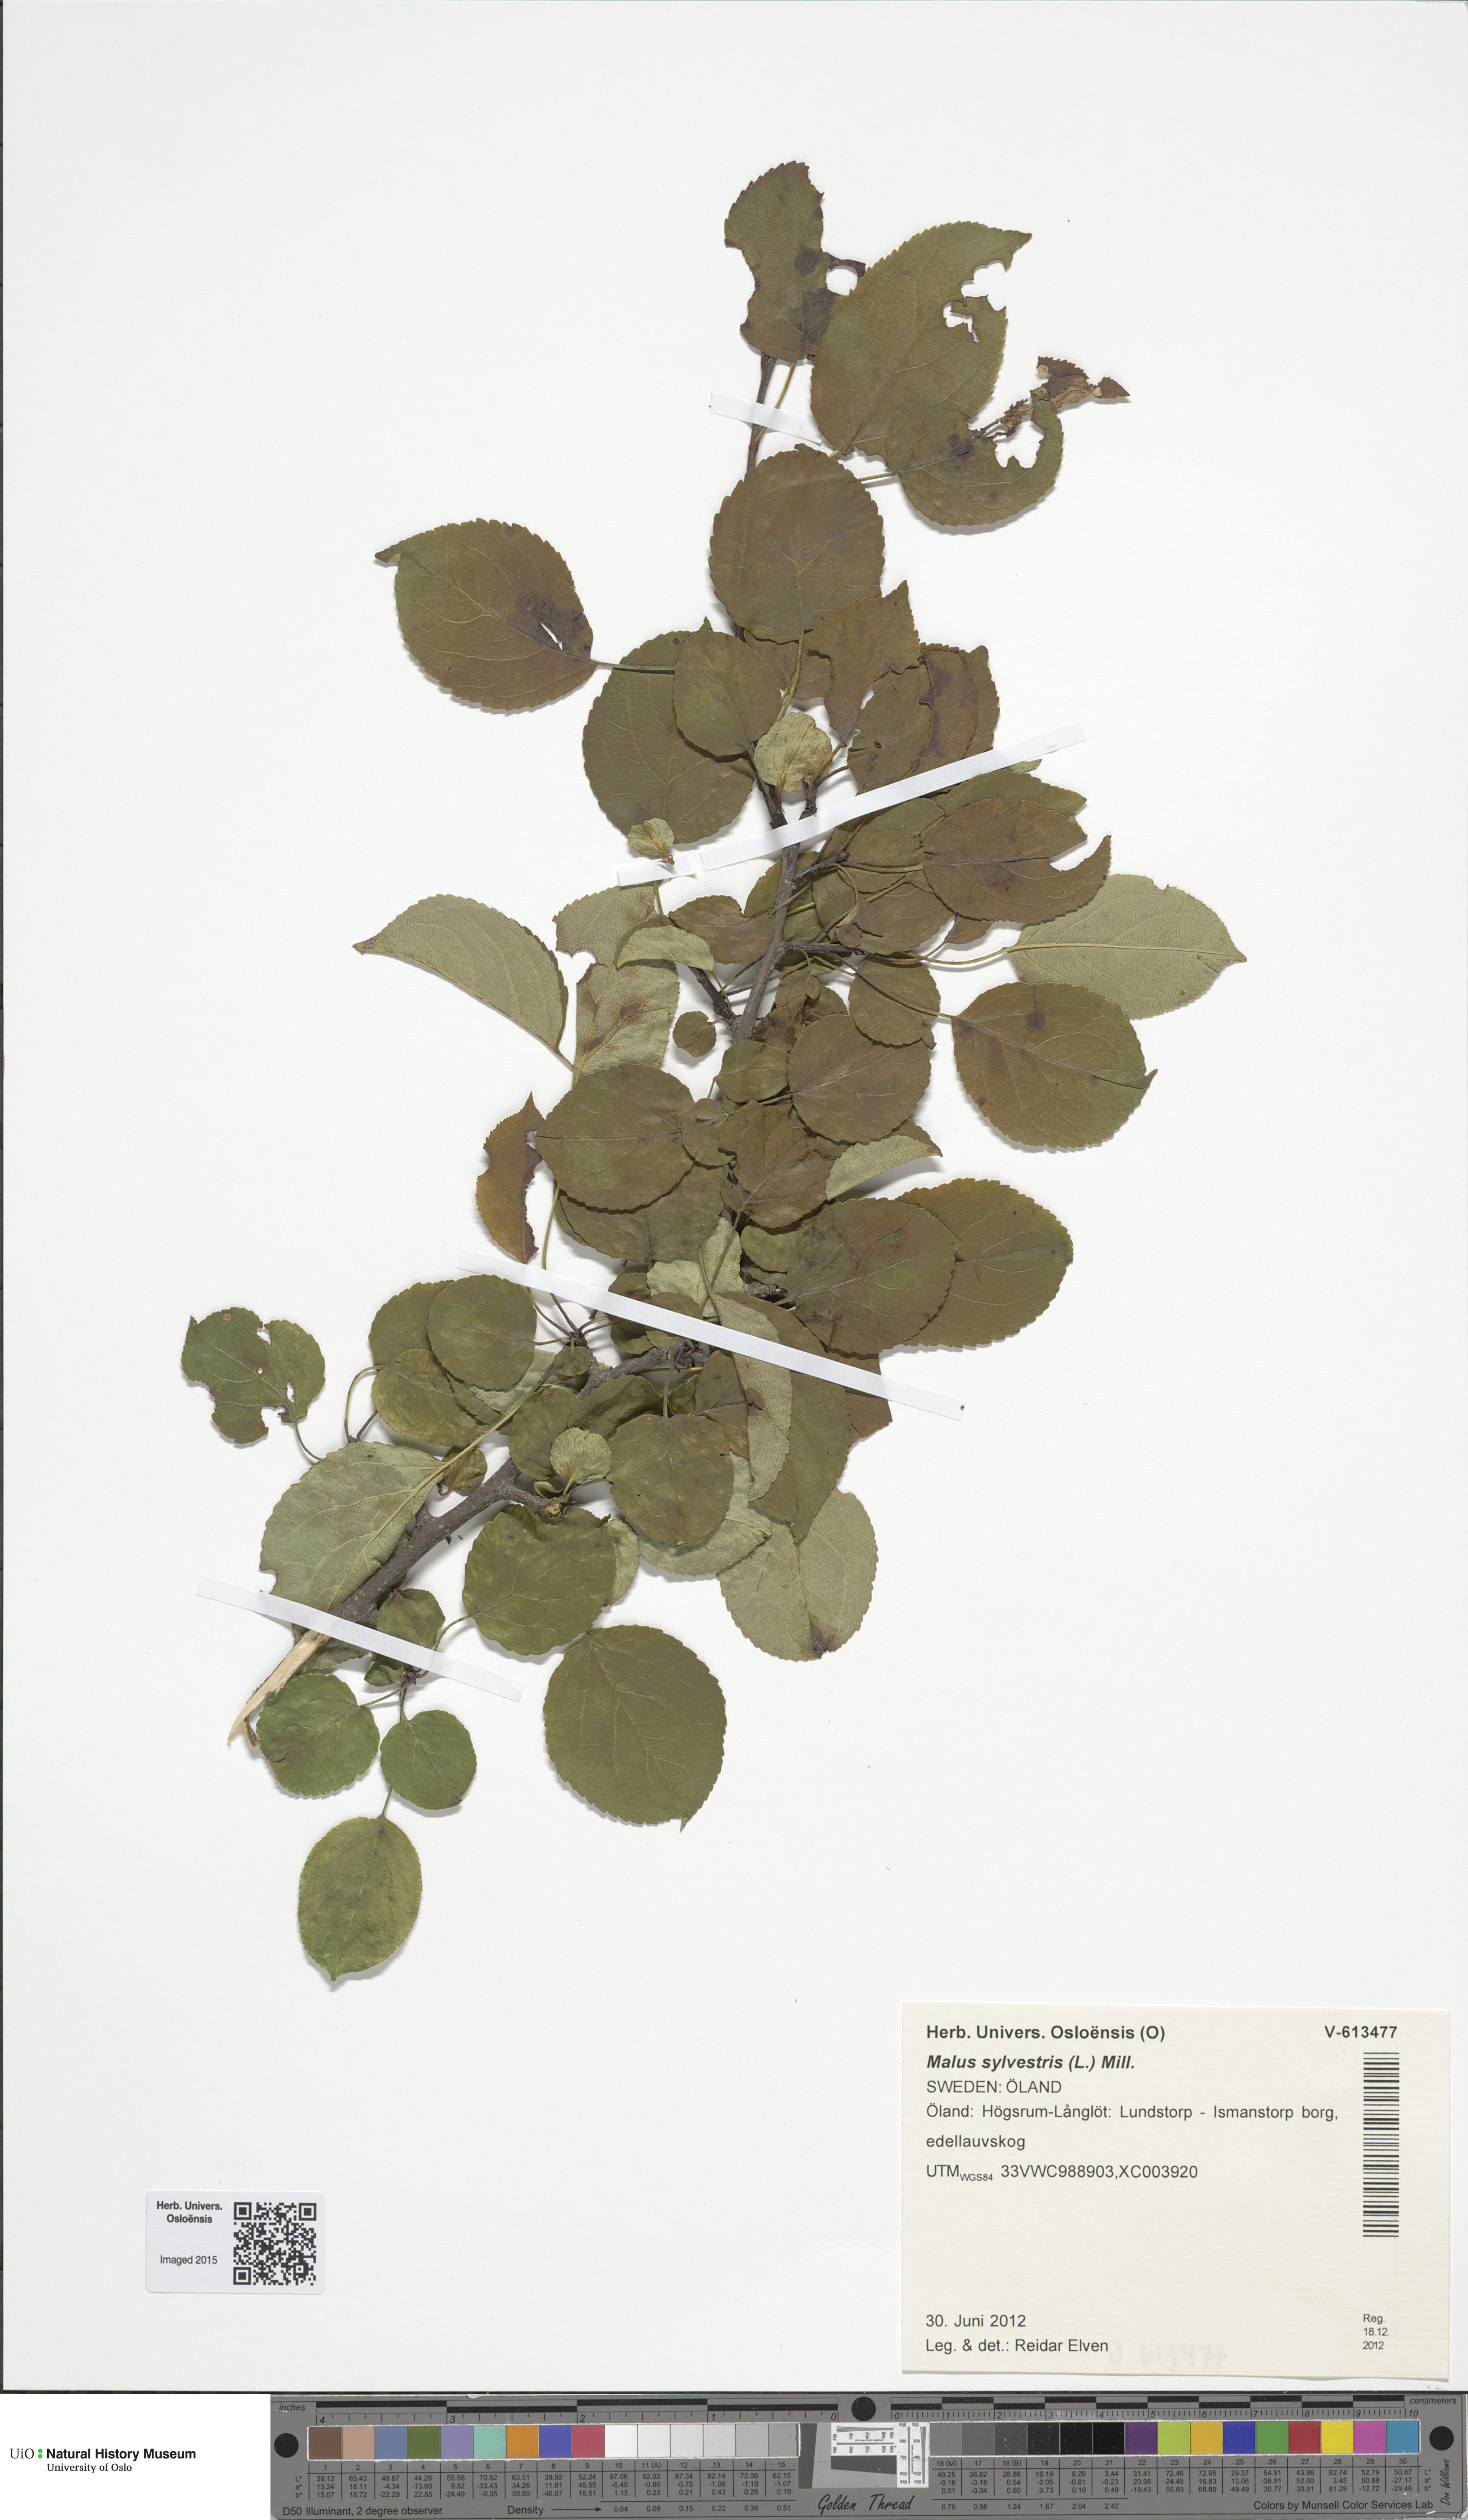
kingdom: Plantae
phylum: Tracheophyta
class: Magnoliopsida
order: Rosales
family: Rosaceae
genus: Malus
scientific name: Malus sylvestris
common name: Crab apple
